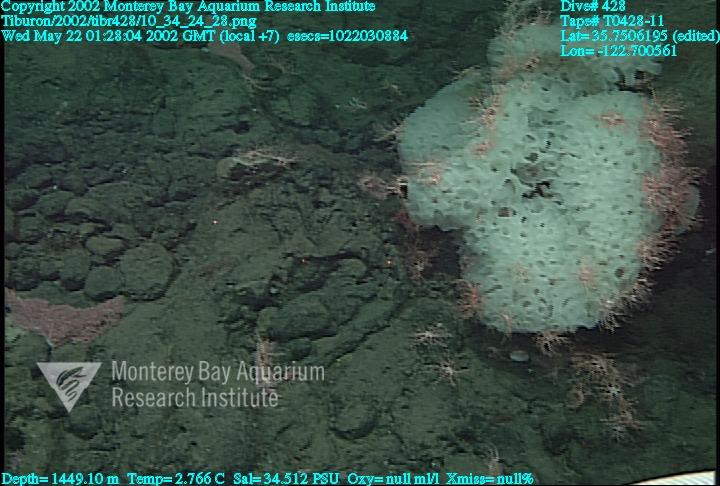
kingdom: Animalia
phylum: Porifera
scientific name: Porifera
